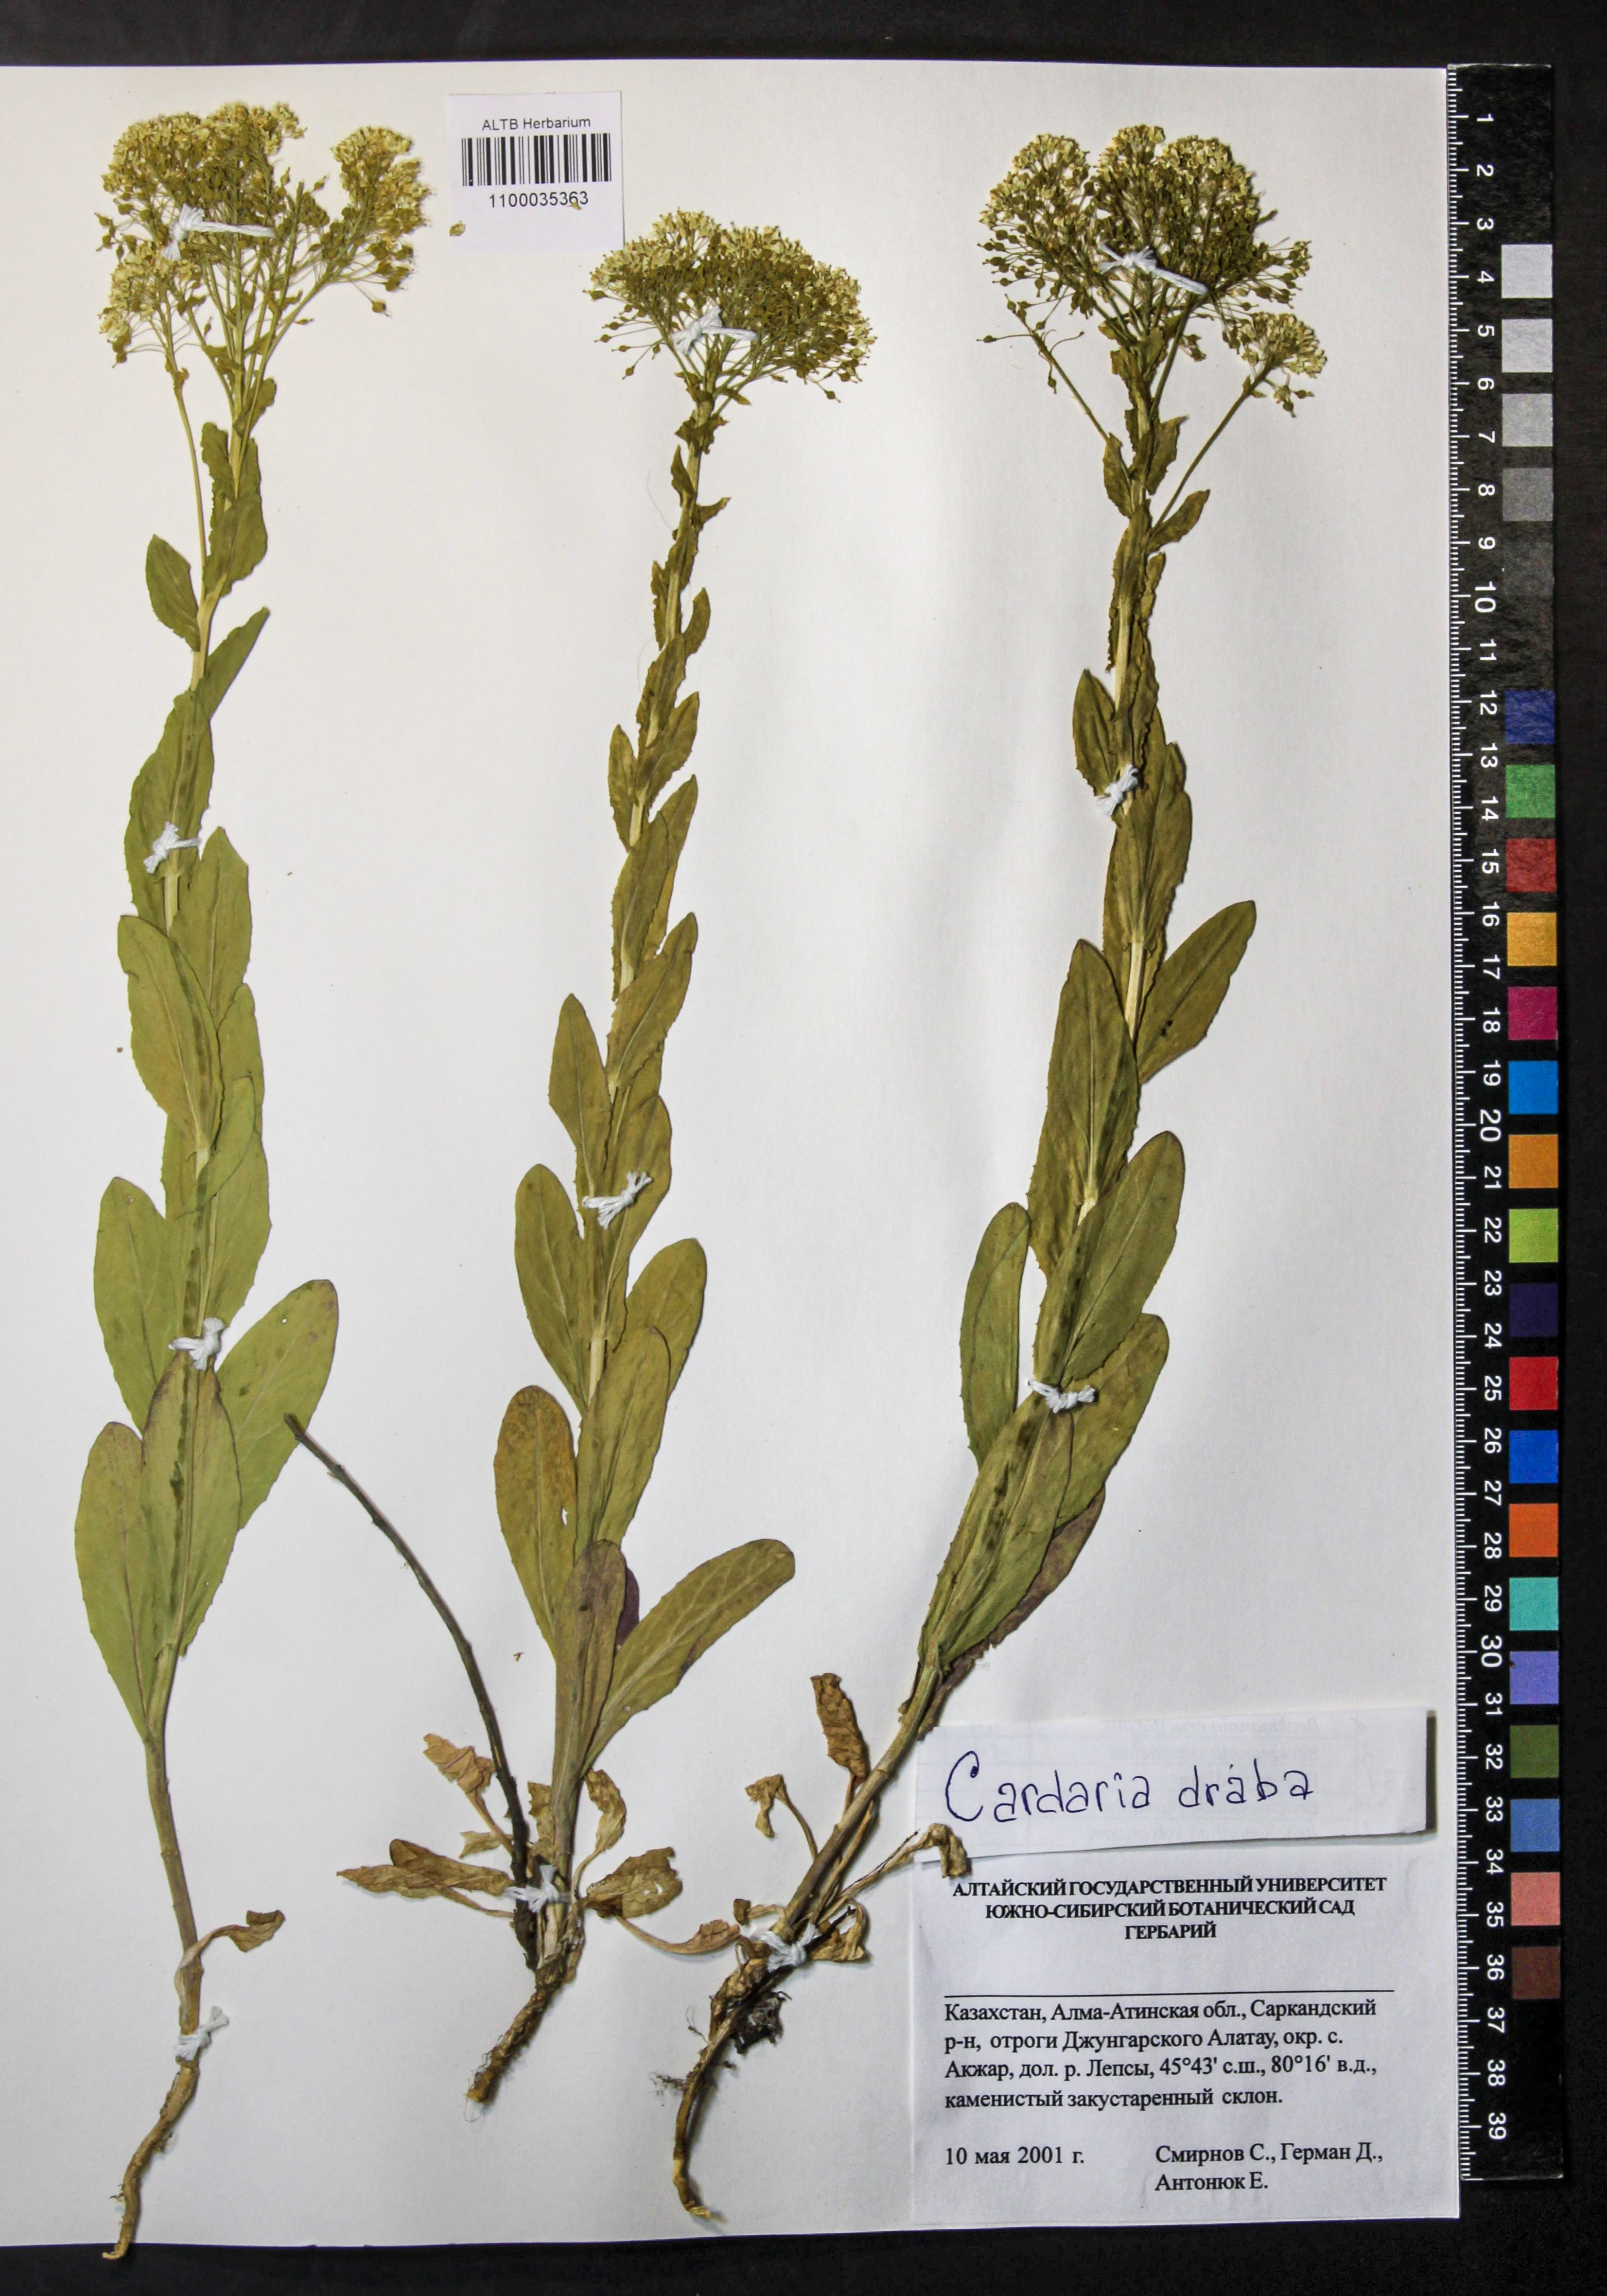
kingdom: Plantae
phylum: Tracheophyta
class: Magnoliopsida
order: Brassicales
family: Brassicaceae
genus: Lepidium
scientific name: Lepidium draba
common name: Hoary cress
